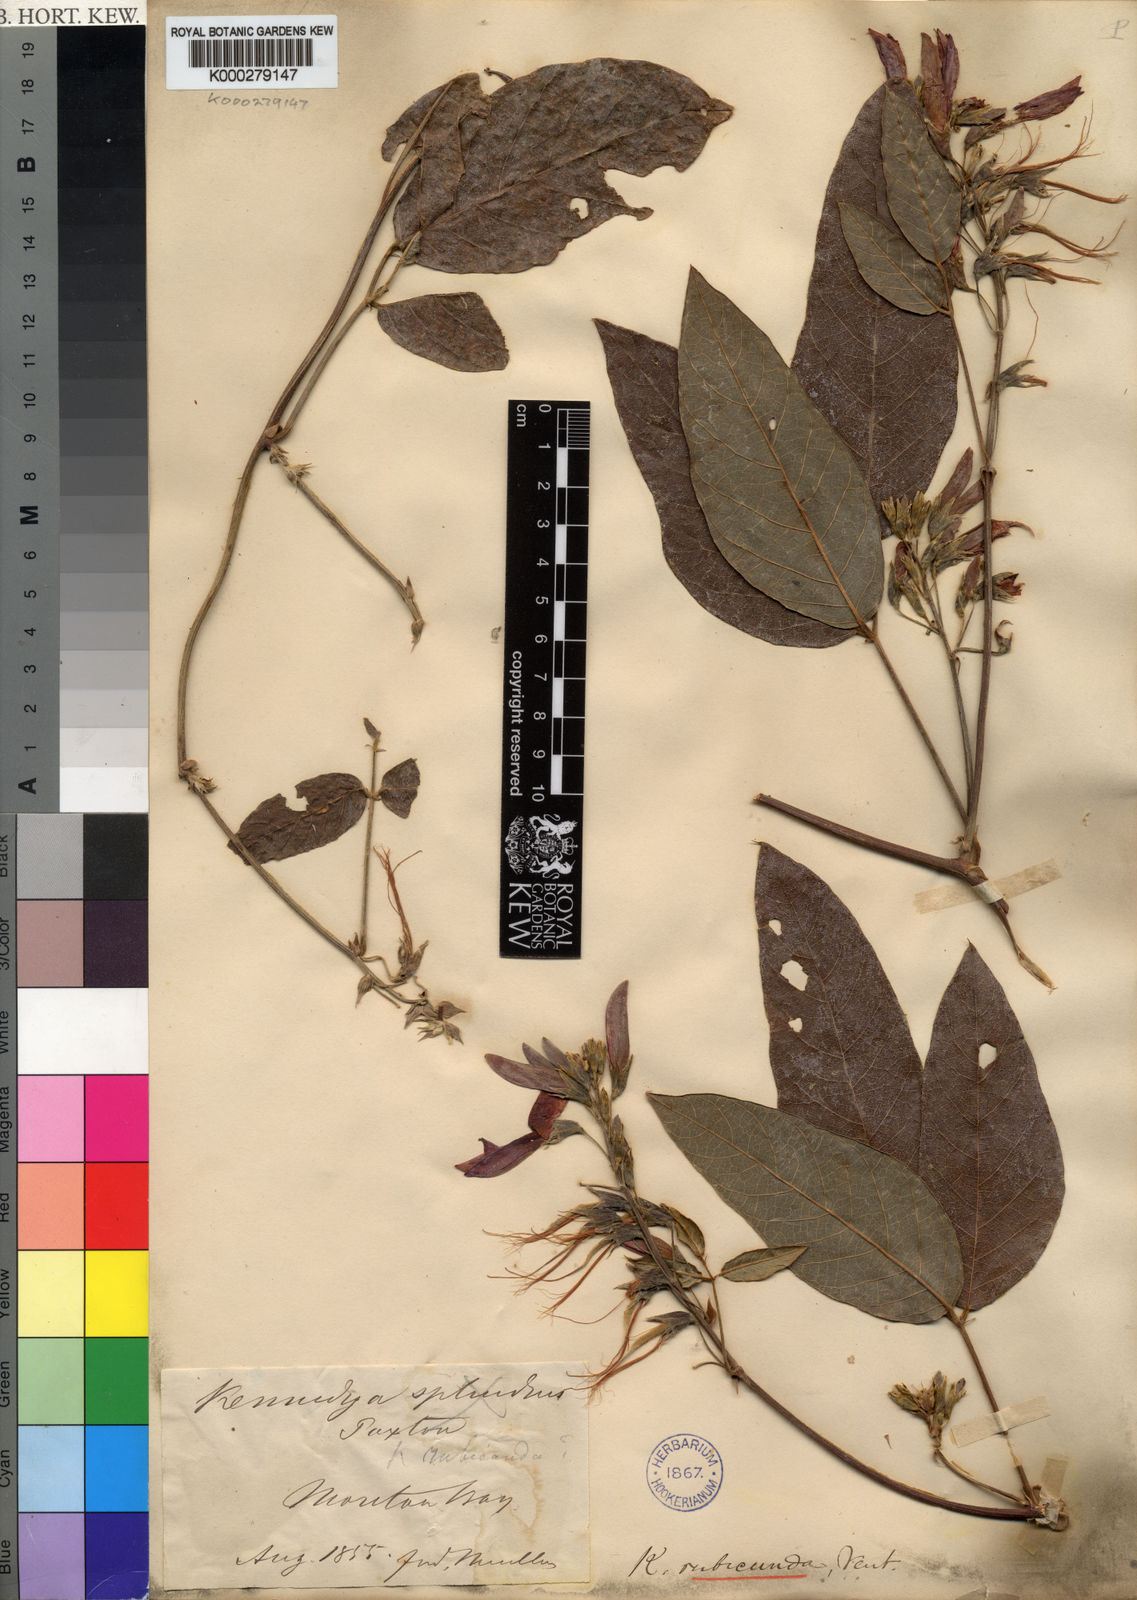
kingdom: Plantae
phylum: Tracheophyta
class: Magnoliopsida
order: Fabales
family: Fabaceae
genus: Kennedia
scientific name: Kennedia rubicunda
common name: Red kennedy-pea
